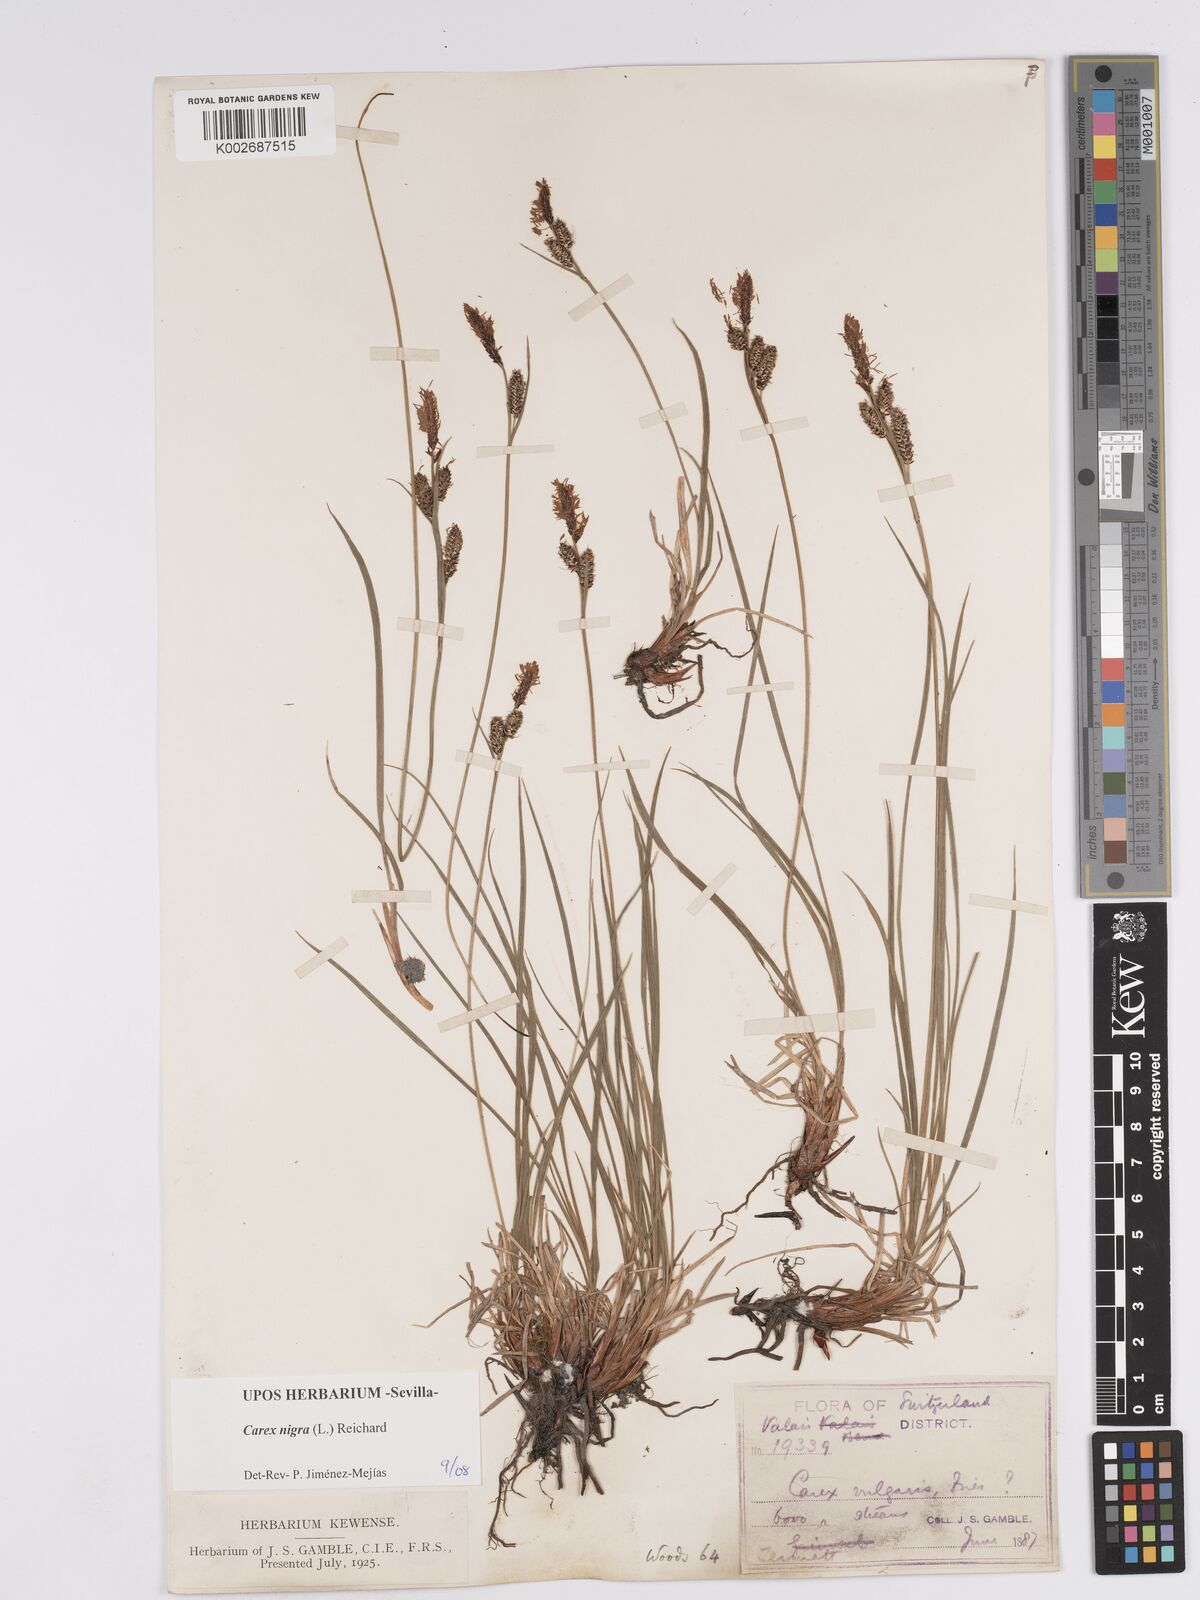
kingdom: Plantae
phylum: Tracheophyta
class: Liliopsida
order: Poales
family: Cyperaceae
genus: Carex
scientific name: Carex nigra
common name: Common sedge
